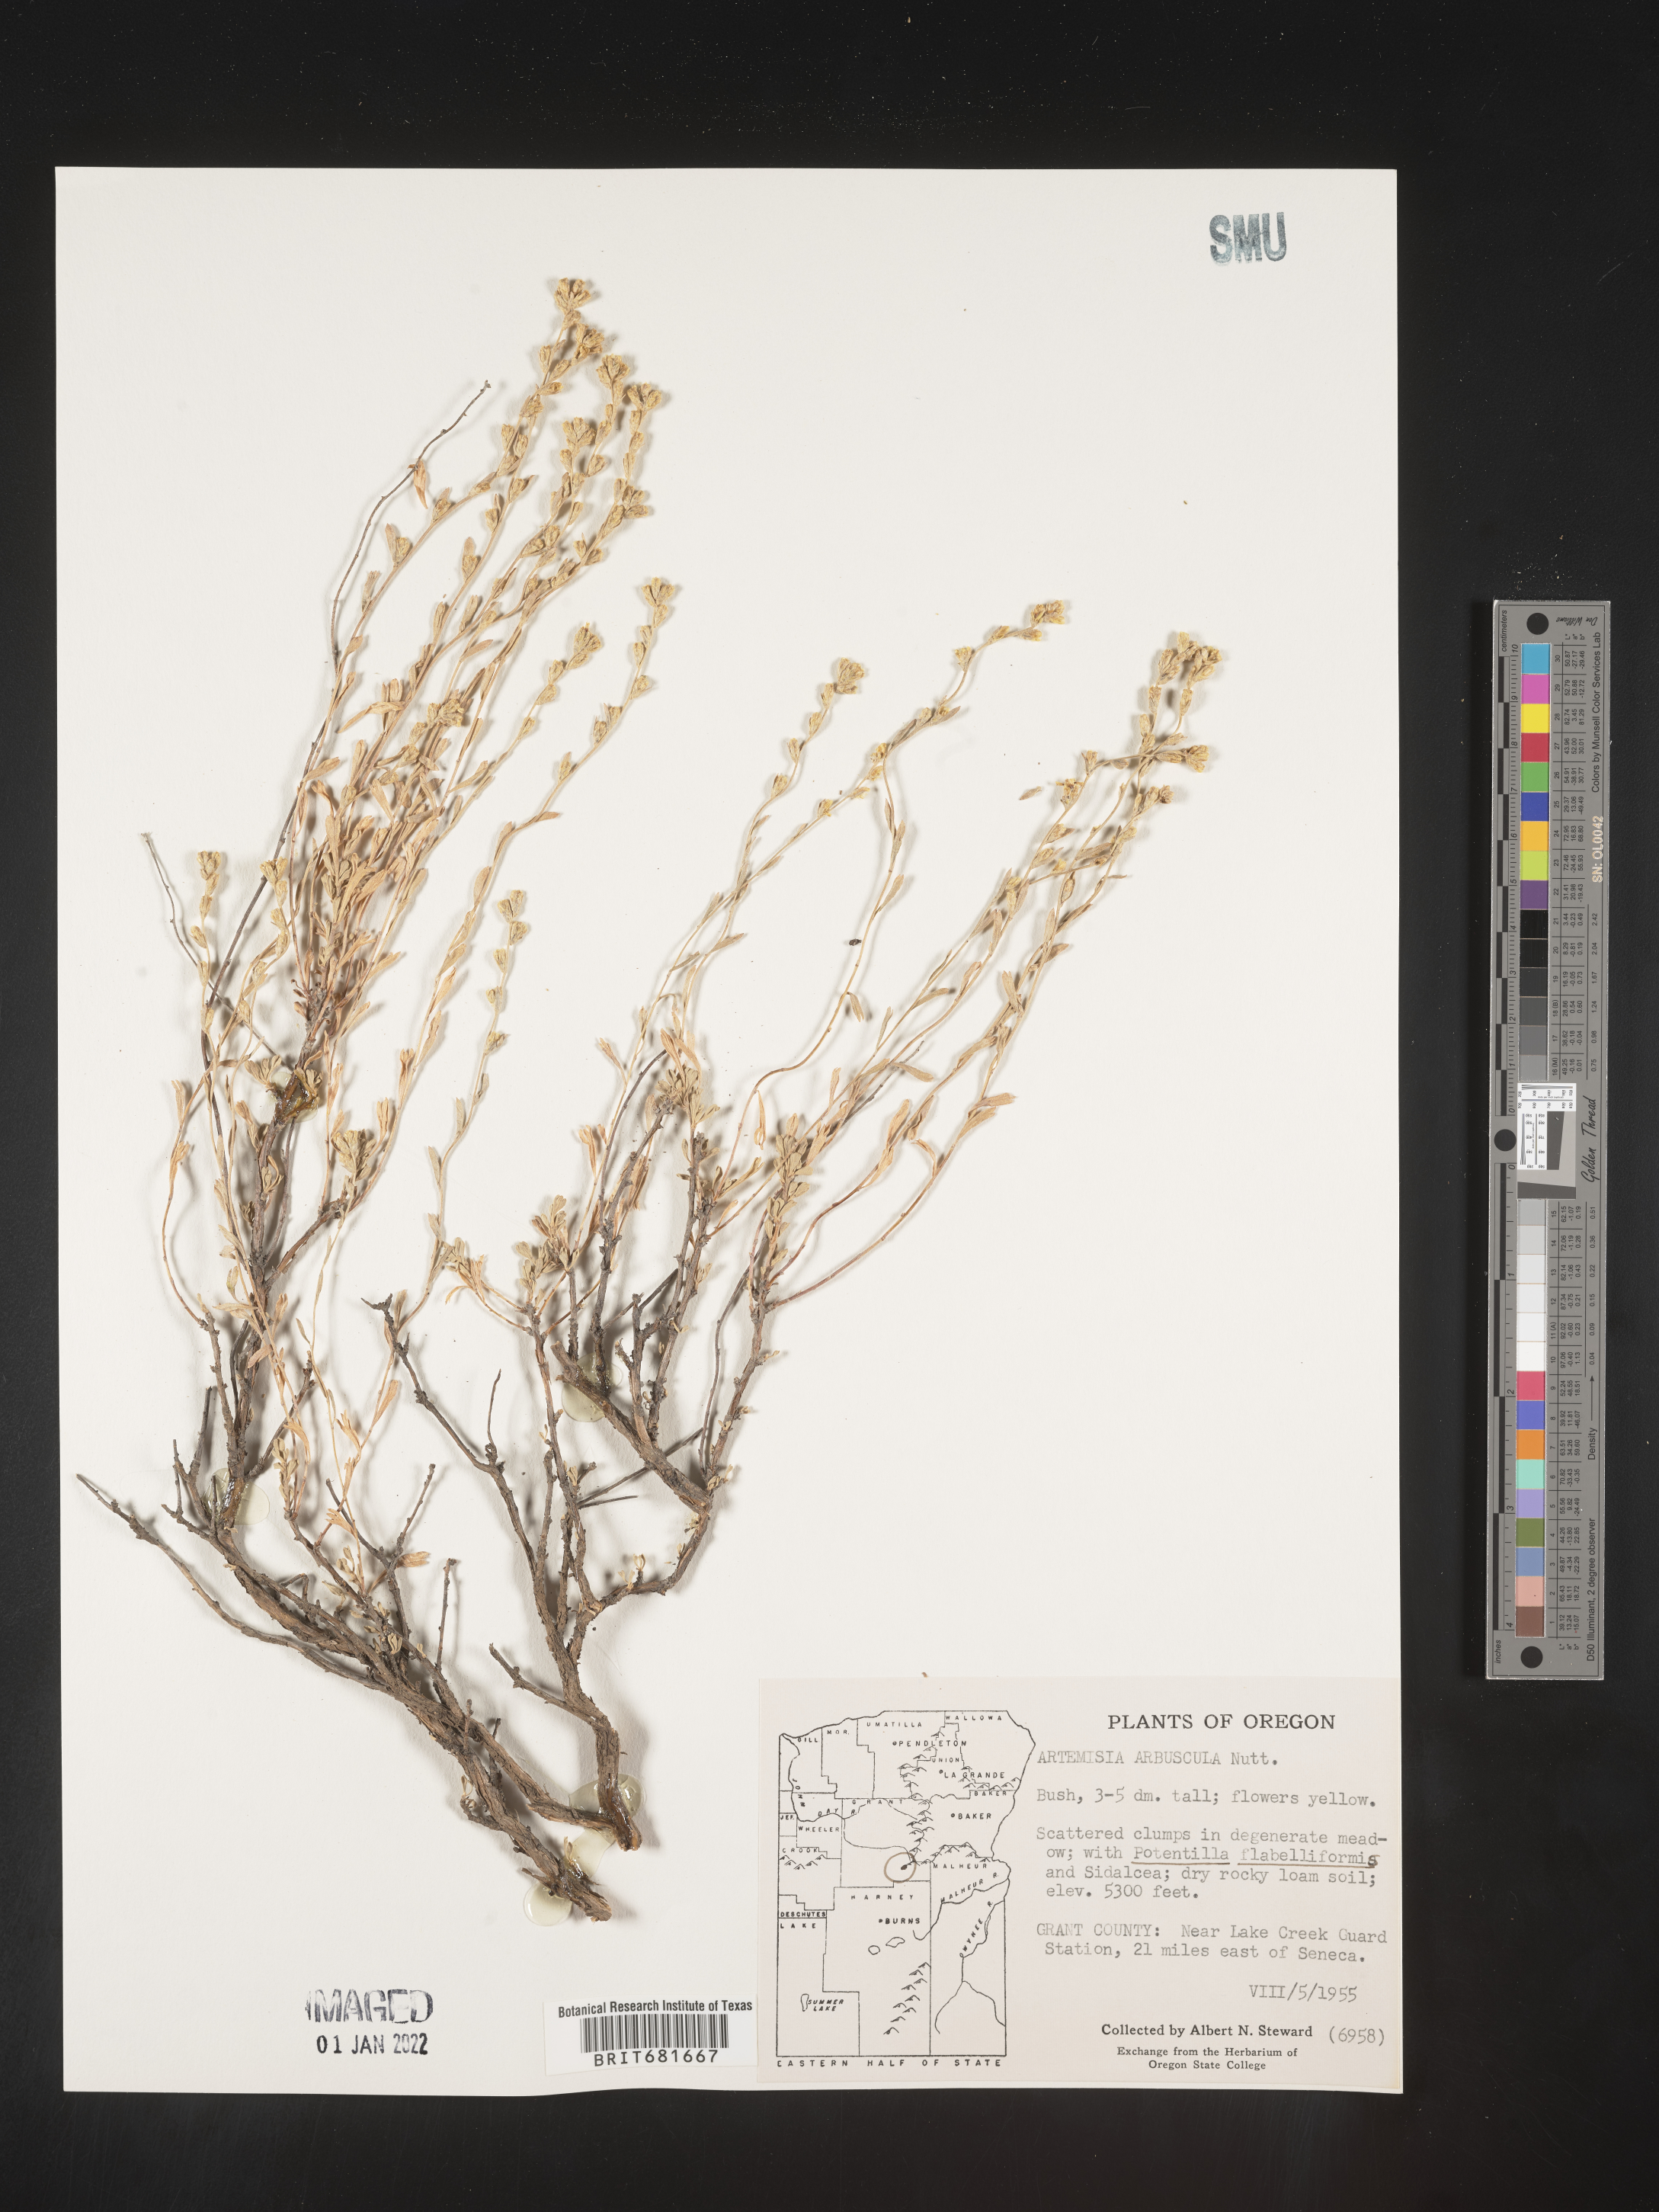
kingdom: Plantae
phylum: Tracheophyta
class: Magnoliopsida
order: Asterales
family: Asteraceae
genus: Artemisia
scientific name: Artemisia arbuscula
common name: Sagebrush
